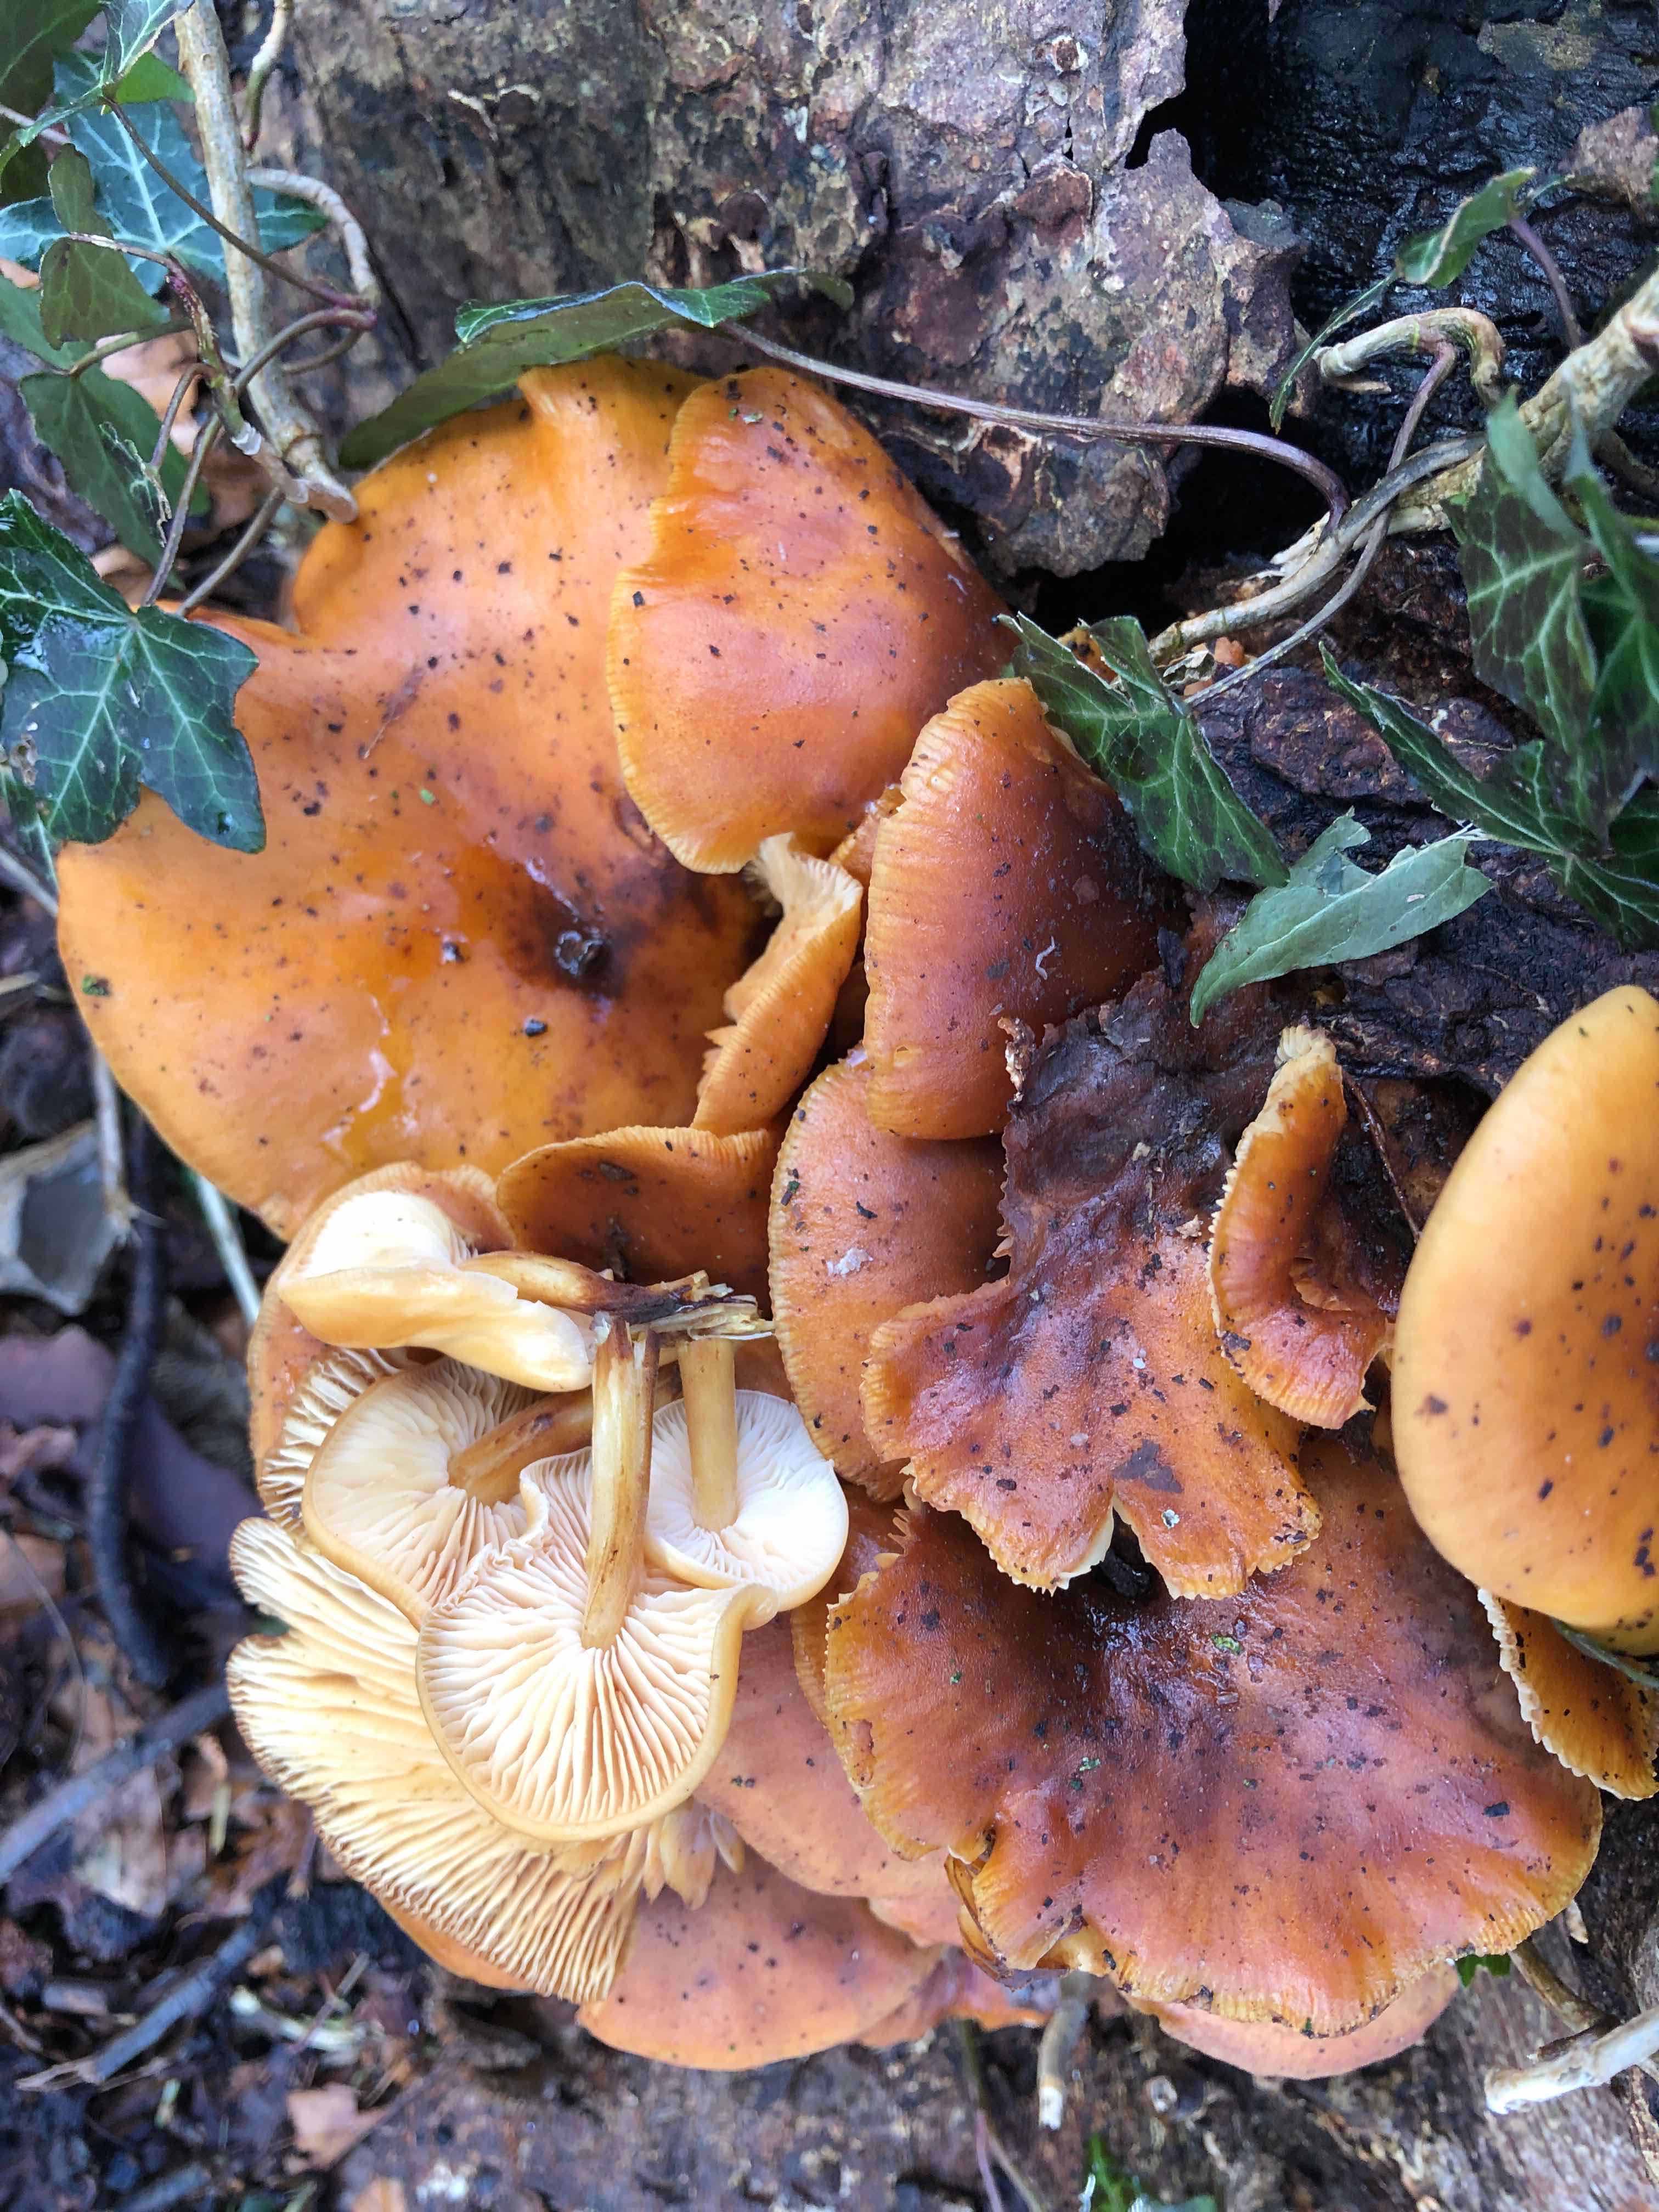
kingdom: Fungi
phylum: Basidiomycota
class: Agaricomycetes
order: Agaricales
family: Physalacriaceae
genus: Flammulina
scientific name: Flammulina velutipes
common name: gul fløjlsfod
